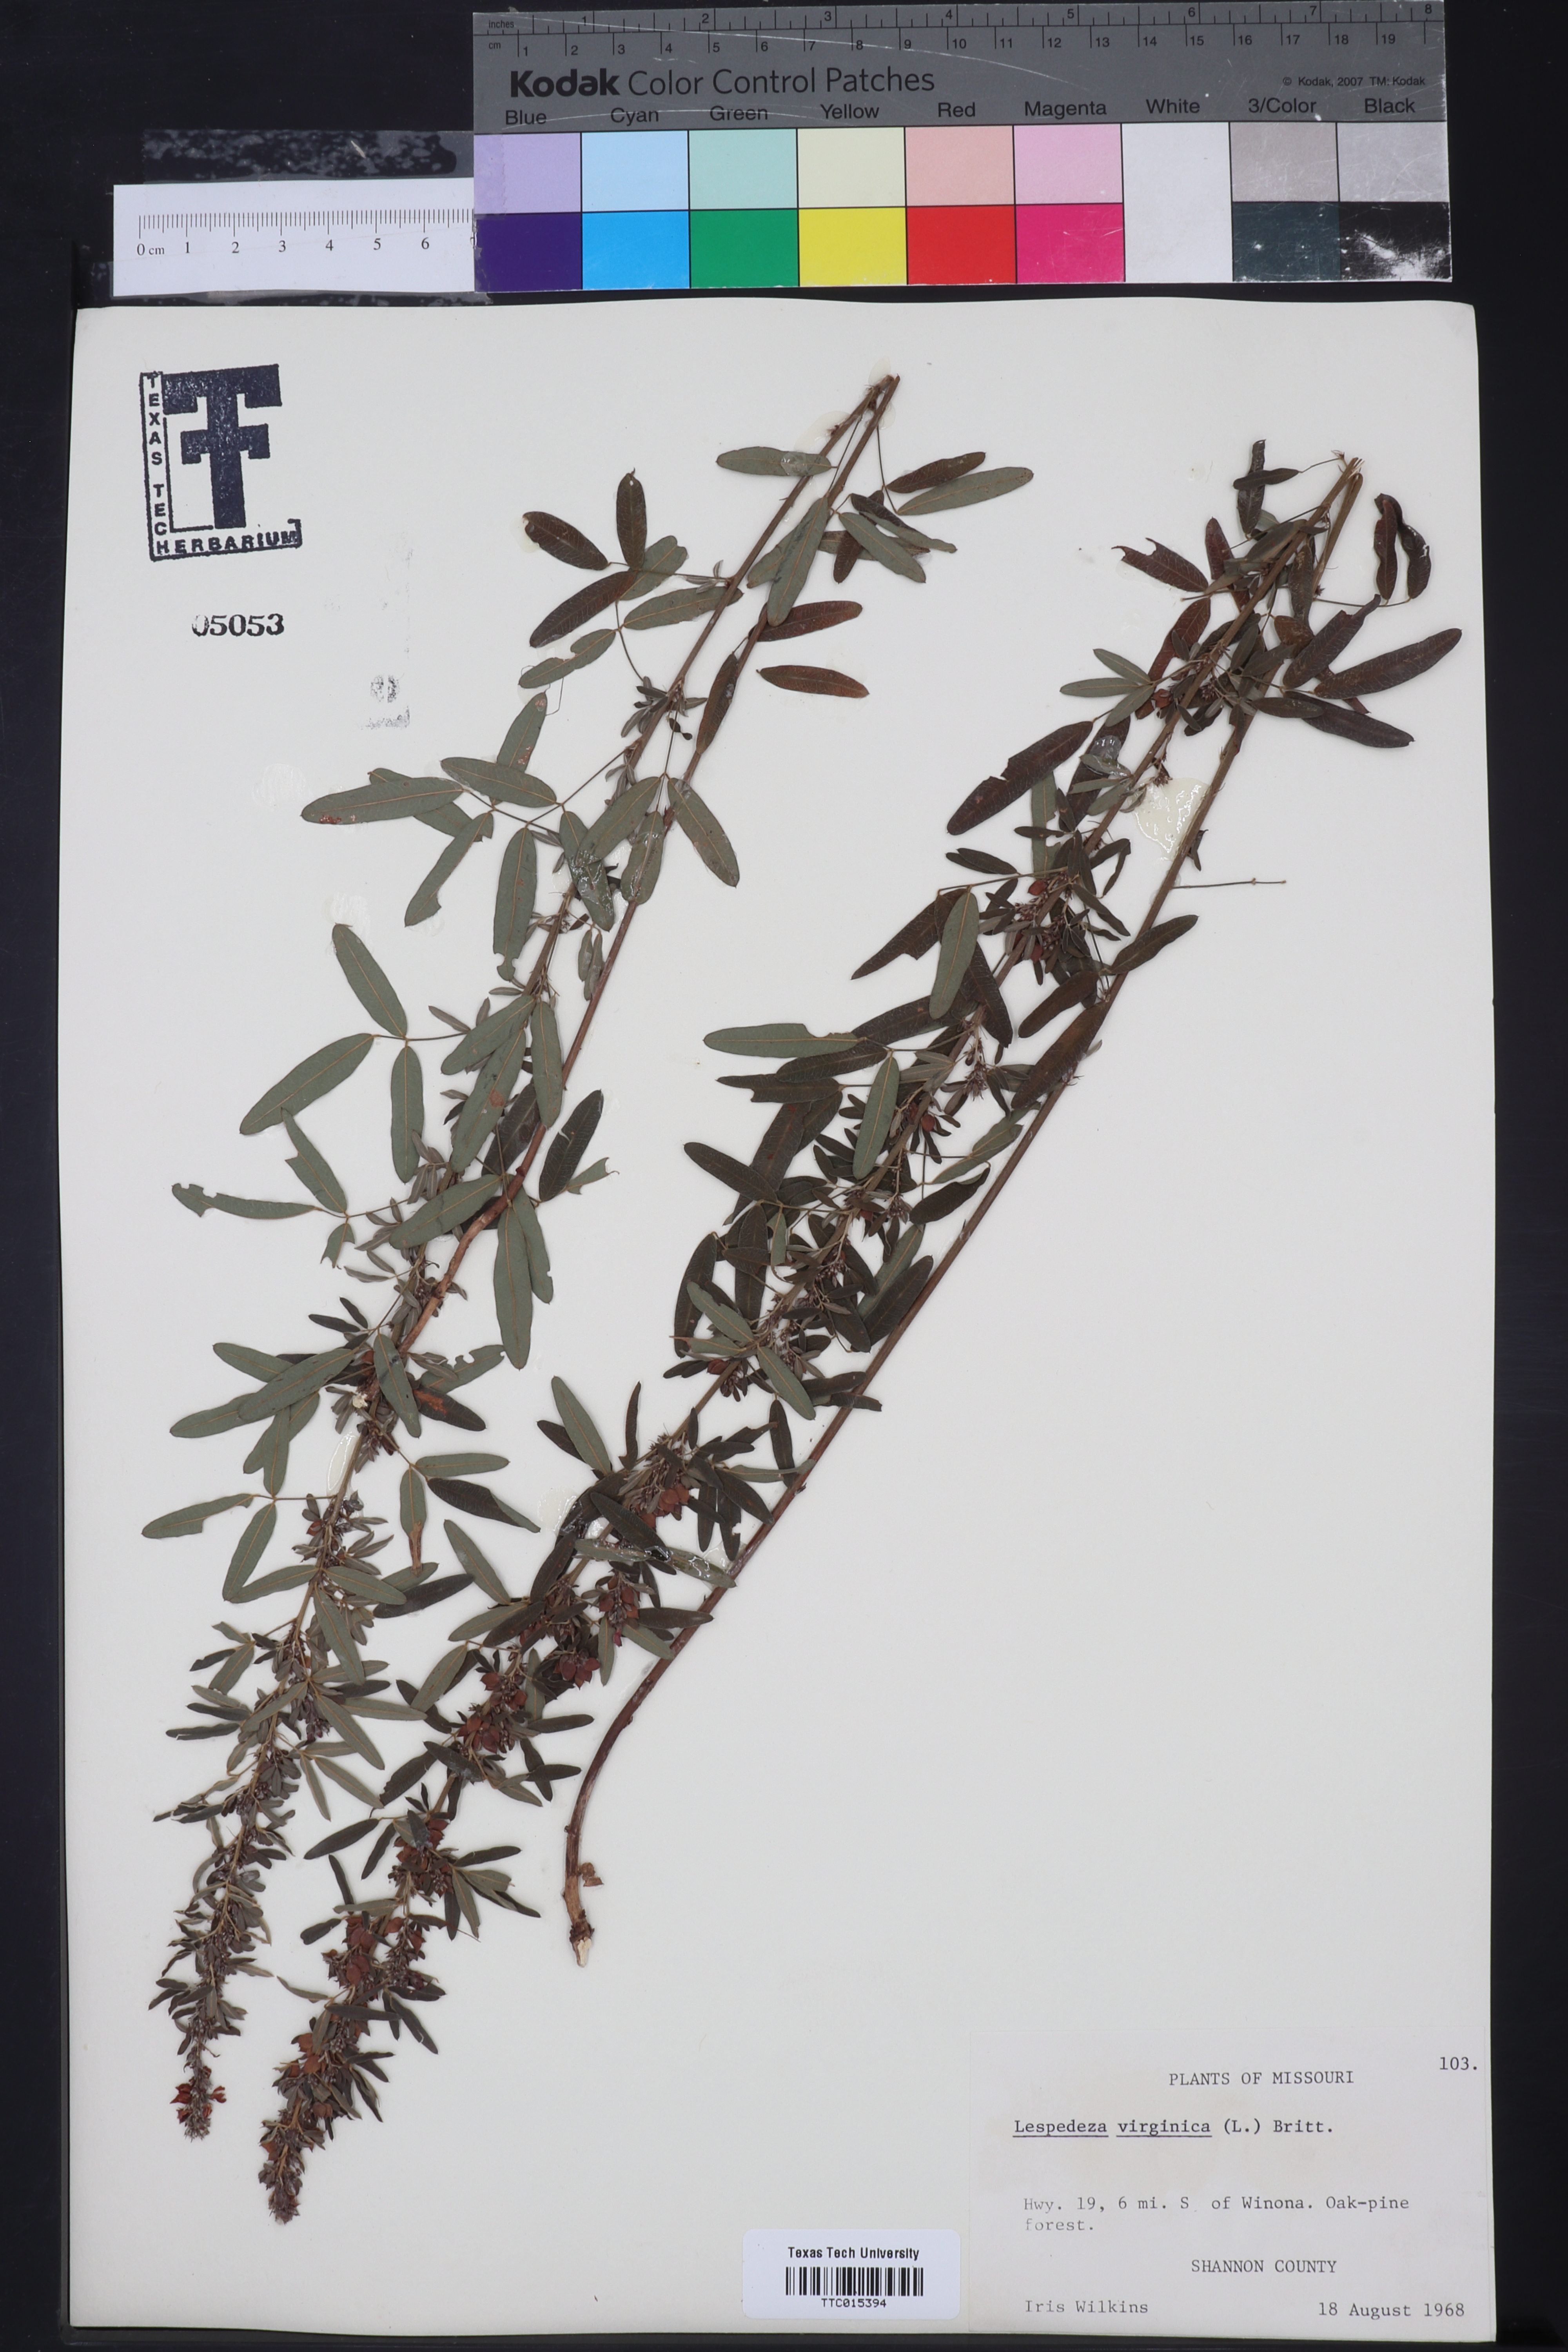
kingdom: Plantae
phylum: Tracheophyta
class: Magnoliopsida
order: Fabales
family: Fabaceae
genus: Lespedeza
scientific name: Lespedeza virginica
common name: Slender bush-clover
